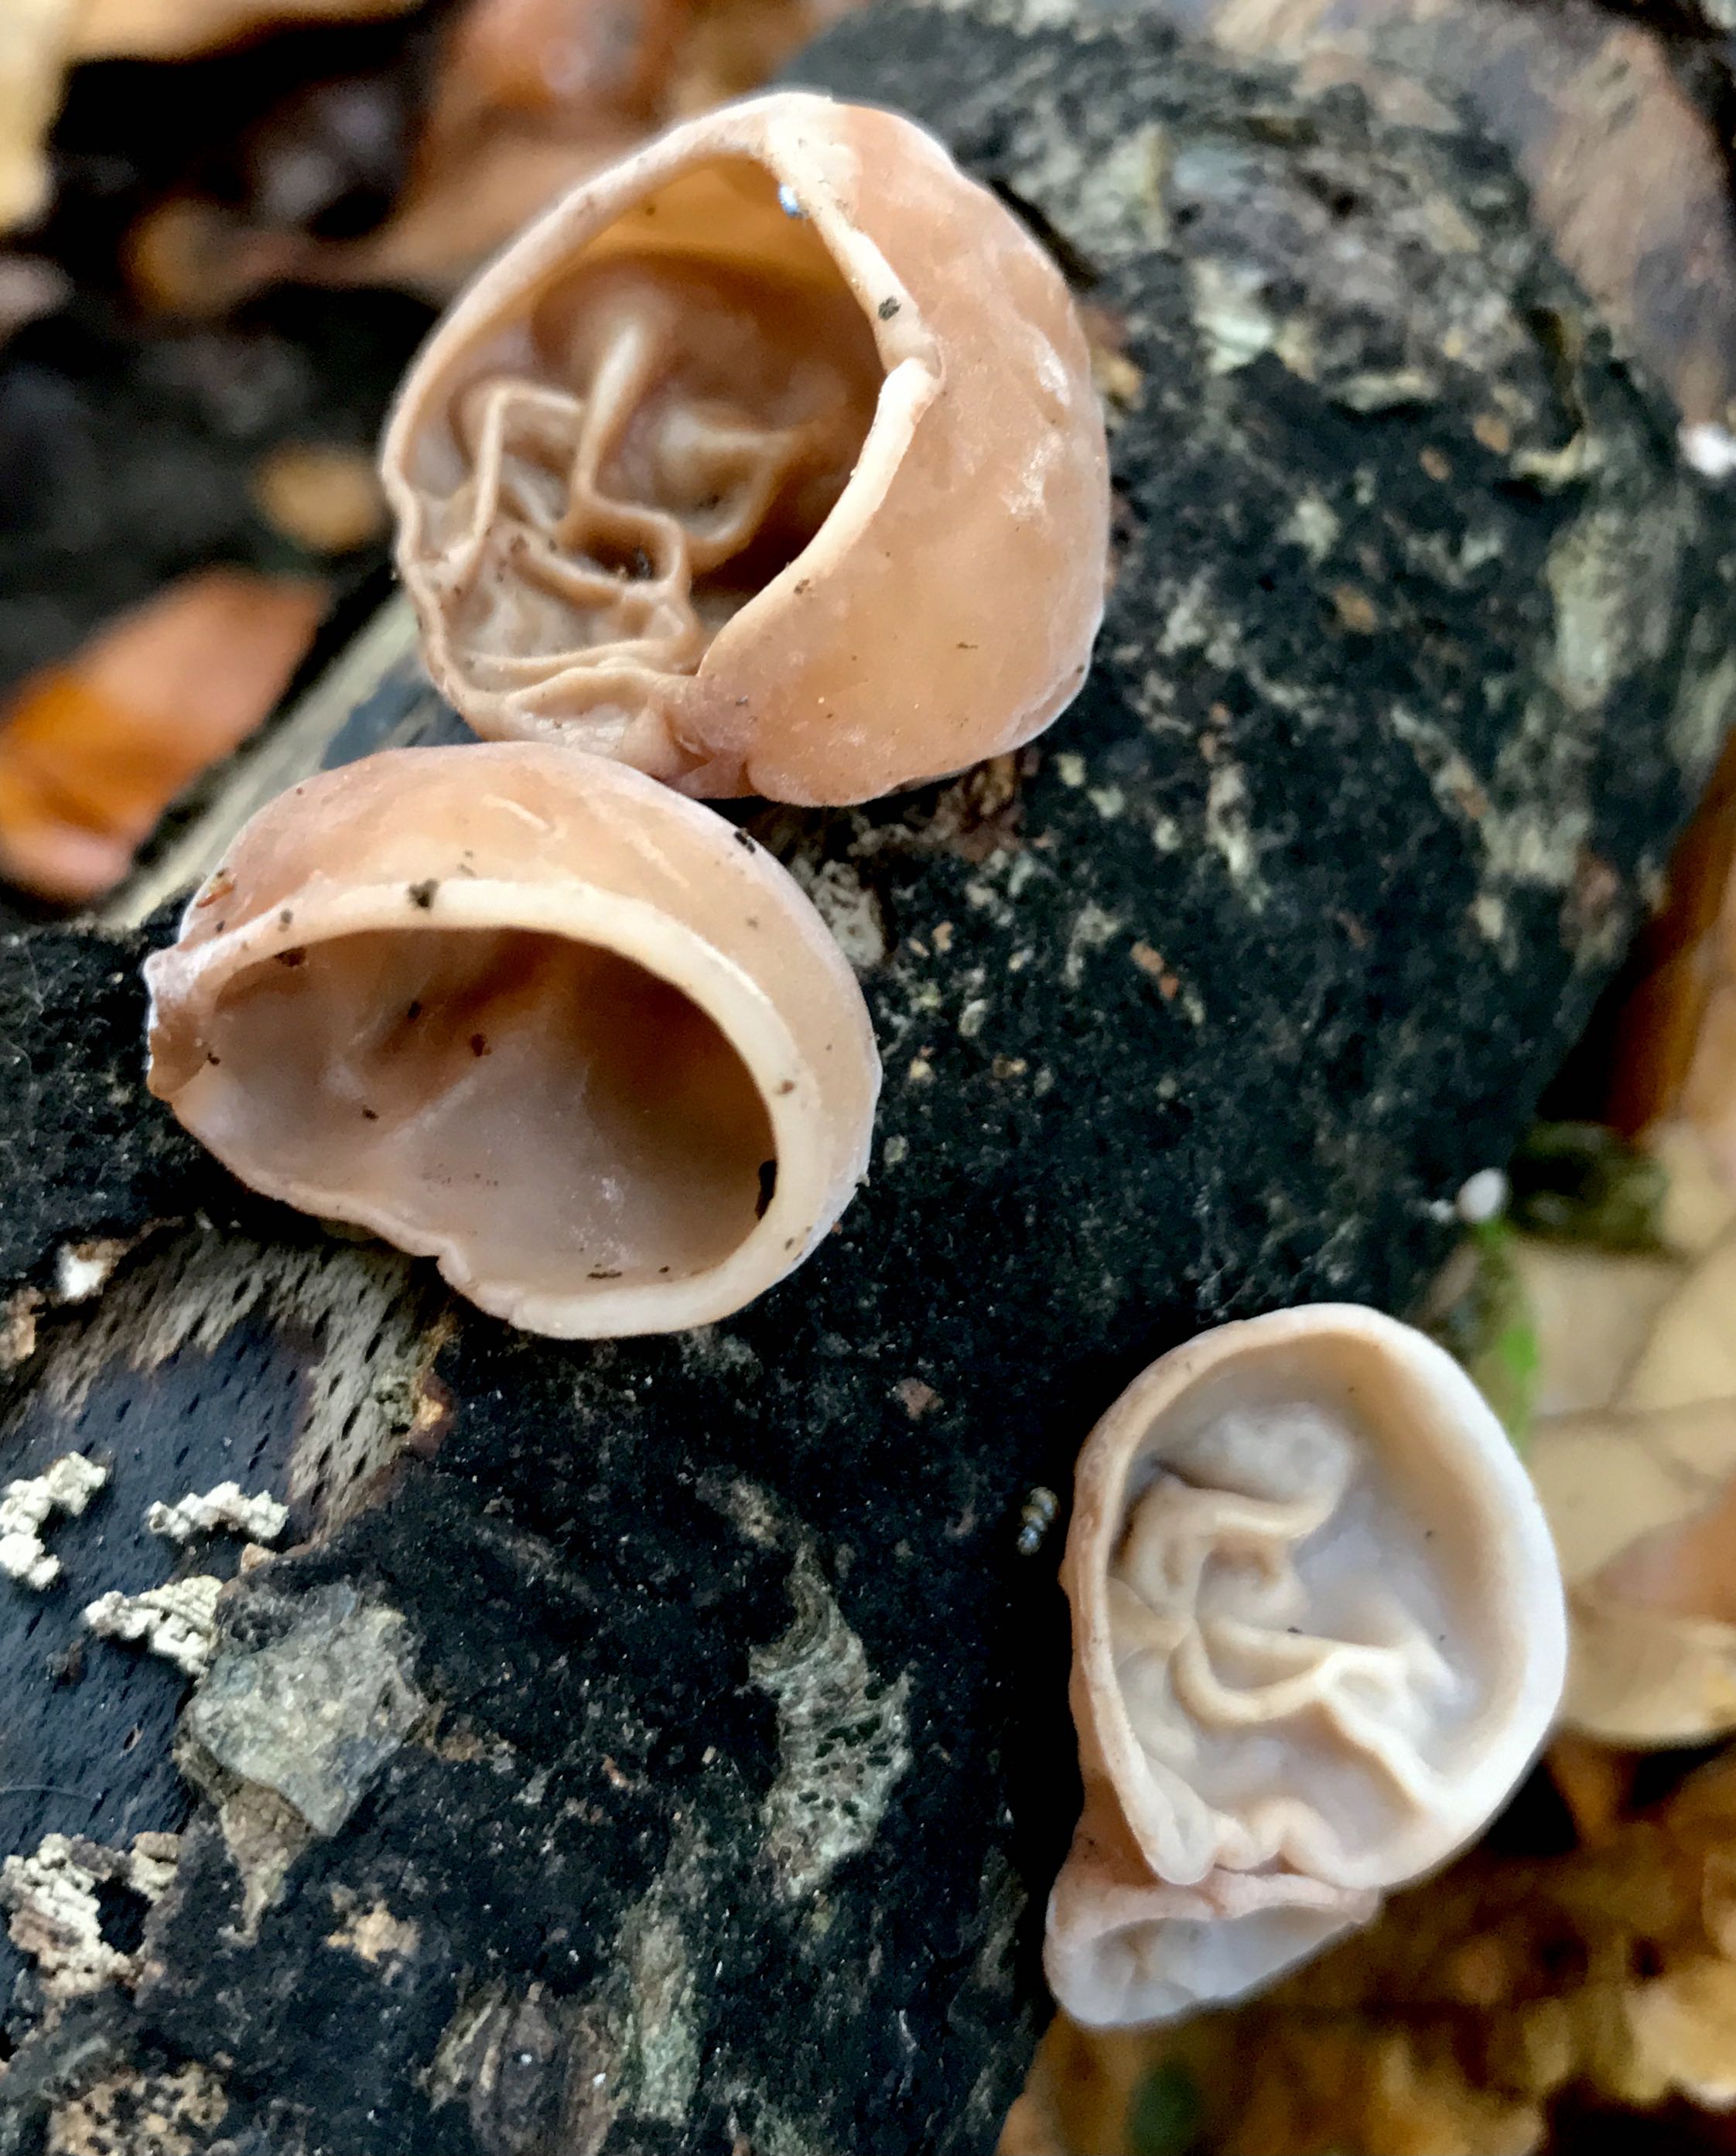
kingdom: Fungi
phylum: Basidiomycota
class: Agaricomycetes
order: Auriculariales
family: Auriculariaceae
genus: Auricularia
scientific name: Auricularia auricula-judae
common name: almindelig judasøre
